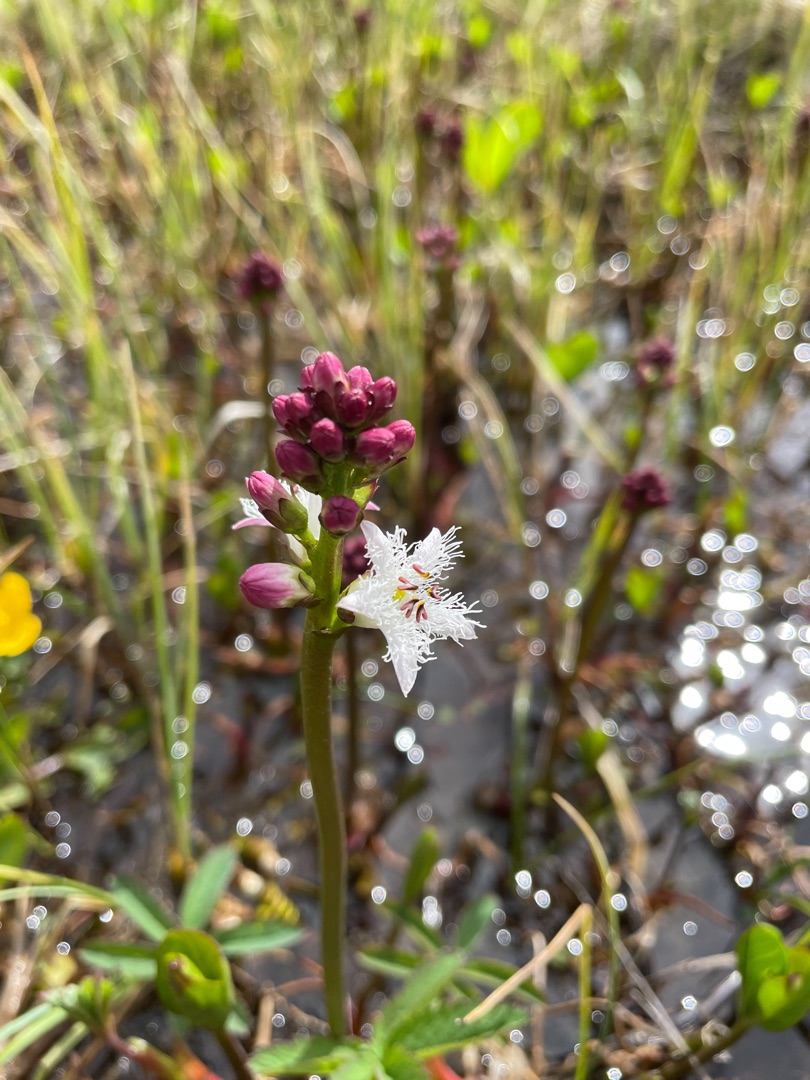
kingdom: Plantae
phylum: Tracheophyta
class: Magnoliopsida
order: Asterales
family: Menyanthaceae
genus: Menyanthes
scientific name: Menyanthes trifoliata
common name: Bukkeblad
